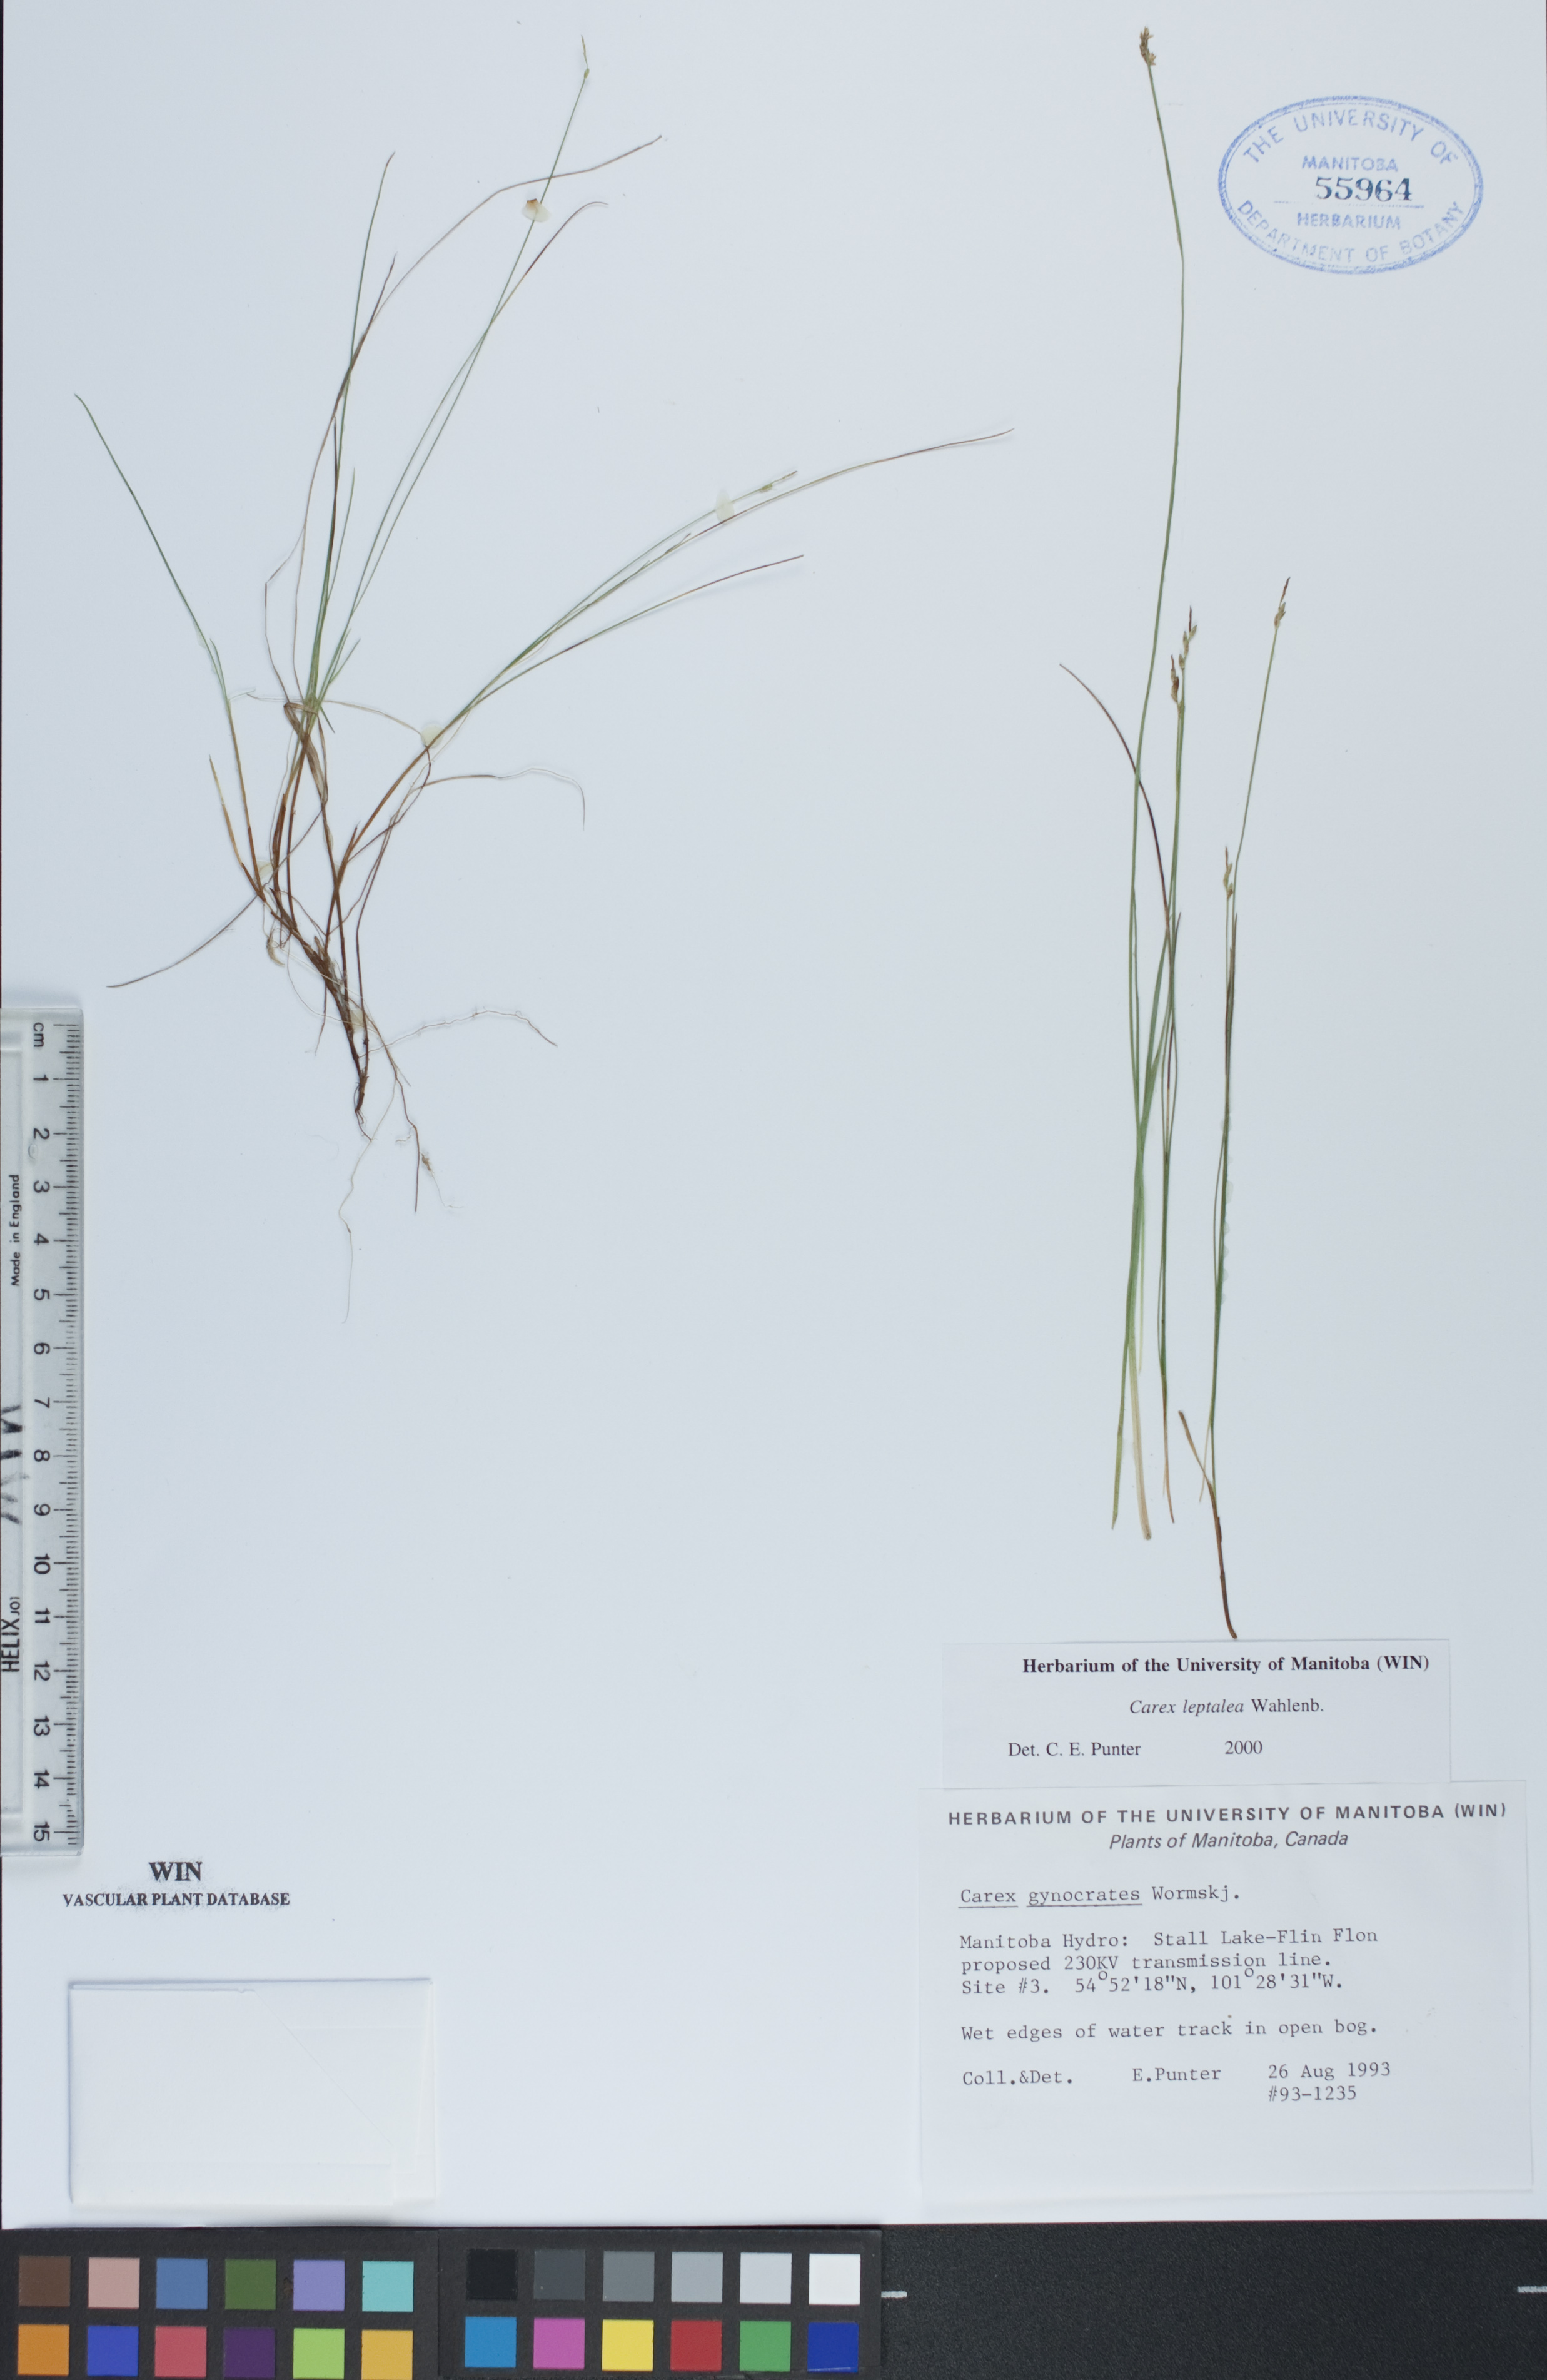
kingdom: Plantae
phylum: Tracheophyta
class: Liliopsida
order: Poales
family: Cyperaceae
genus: Carex
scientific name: Carex leptalea
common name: Bristly-stalked sedge
